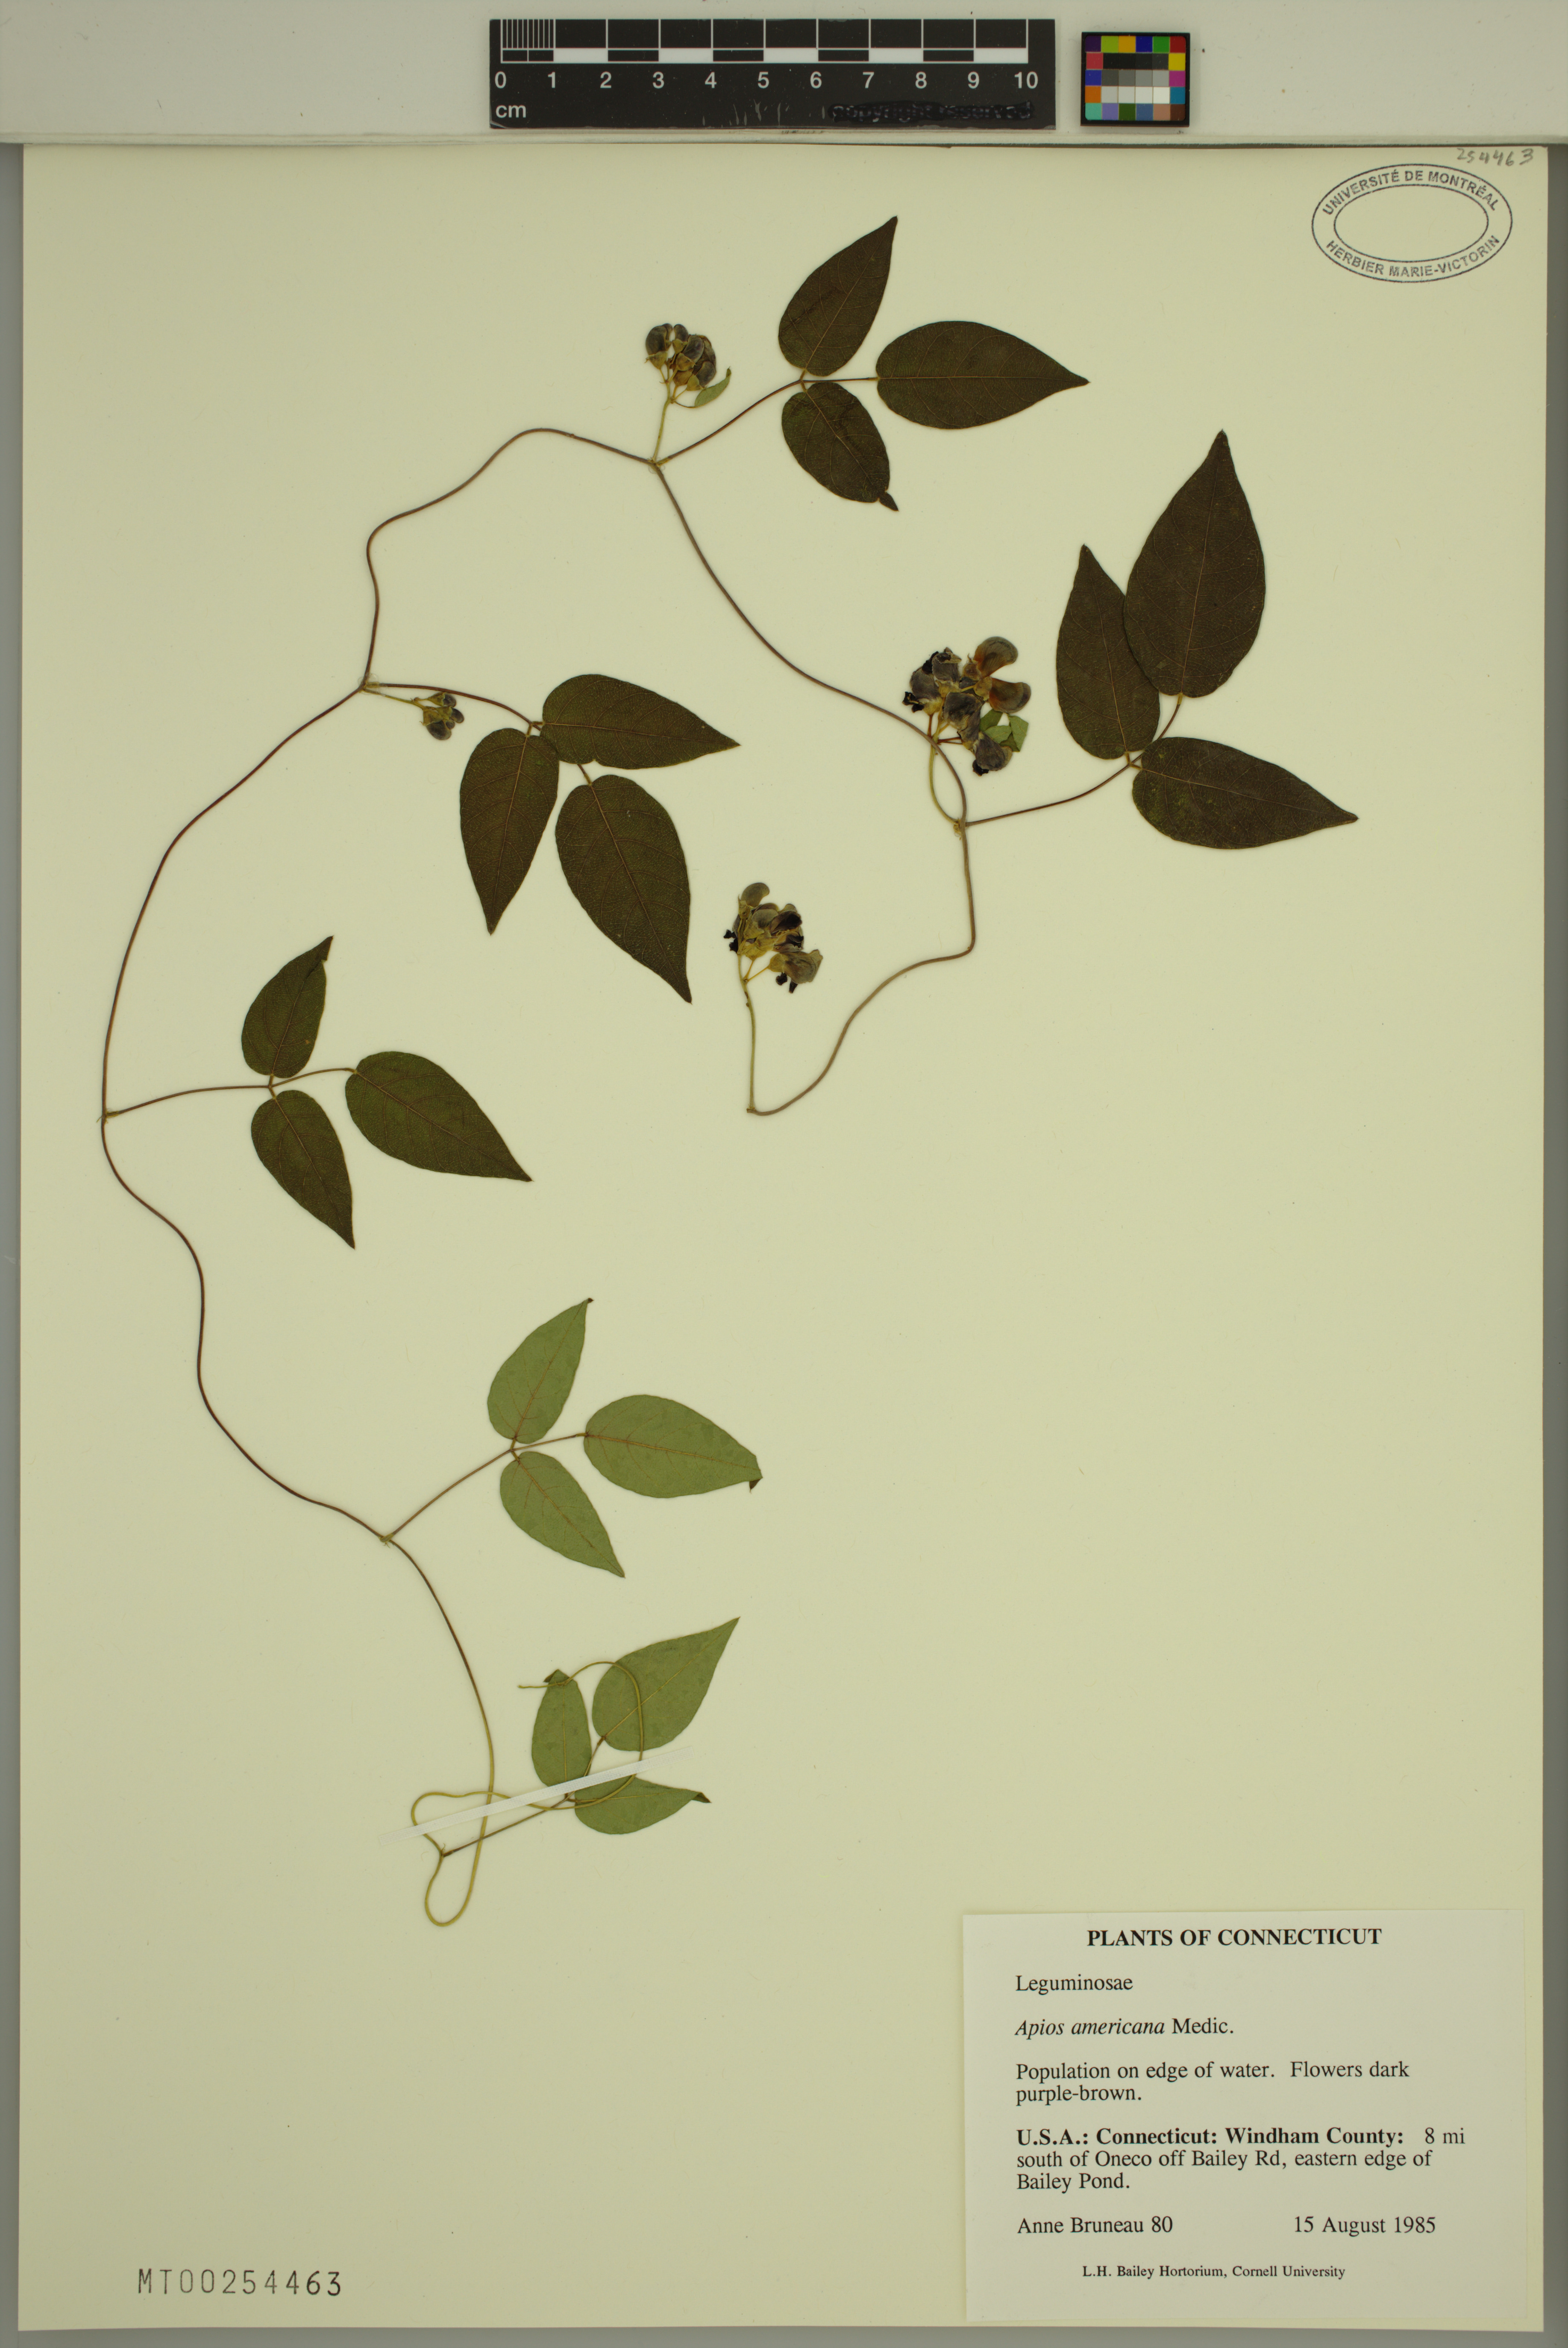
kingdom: Plantae
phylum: Tracheophyta
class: Magnoliopsida
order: Fabales
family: Fabaceae
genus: Apios
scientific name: Apios americana
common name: American potato-bean
